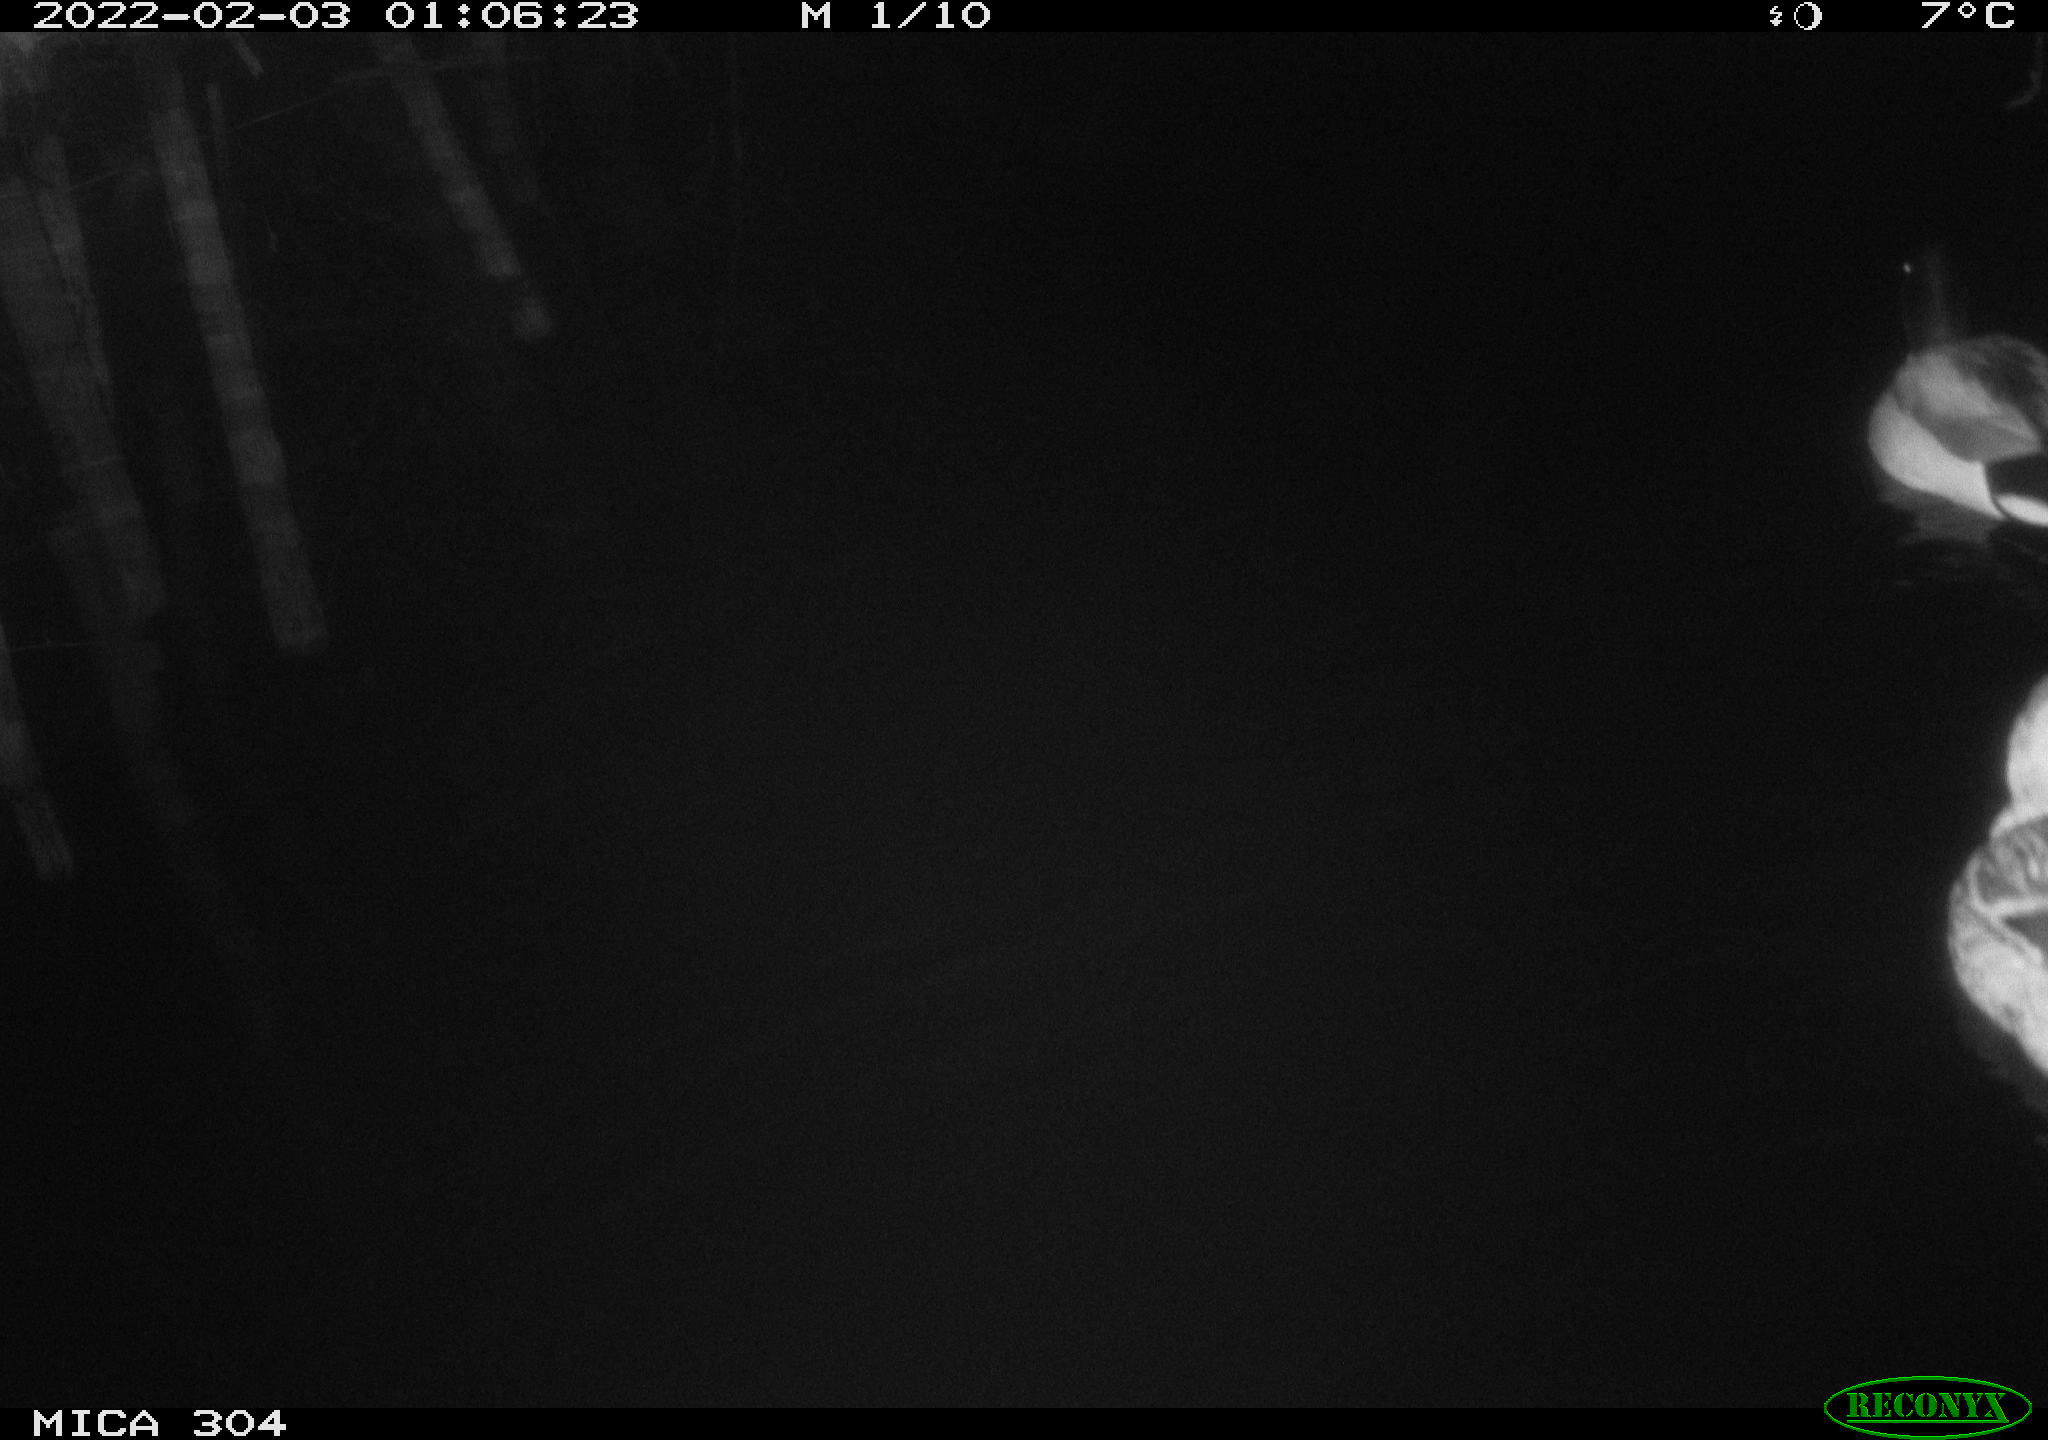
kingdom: Animalia
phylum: Chordata
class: Aves
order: Anseriformes
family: Anatidae
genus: Anas
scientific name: Anas
